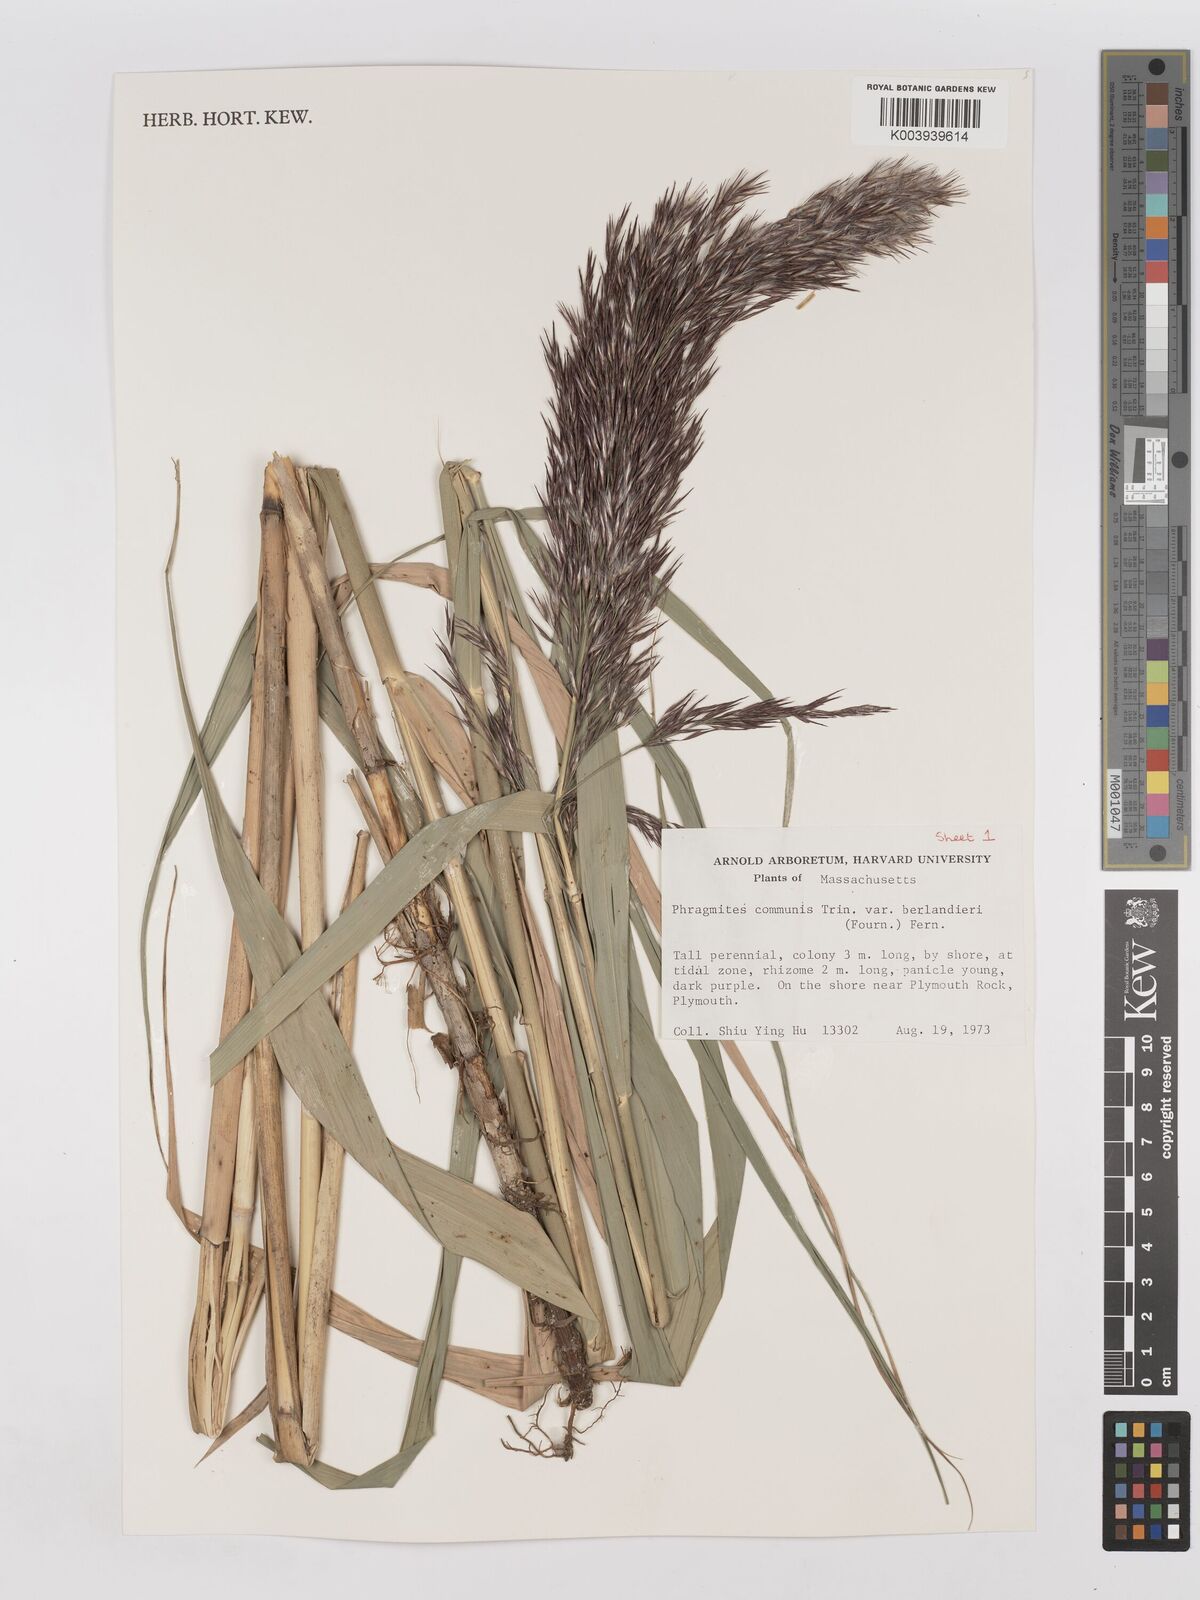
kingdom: Plantae
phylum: Tracheophyta
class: Liliopsida
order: Poales
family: Poaceae
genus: Phragmites
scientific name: Phragmites australis
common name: Common reed
